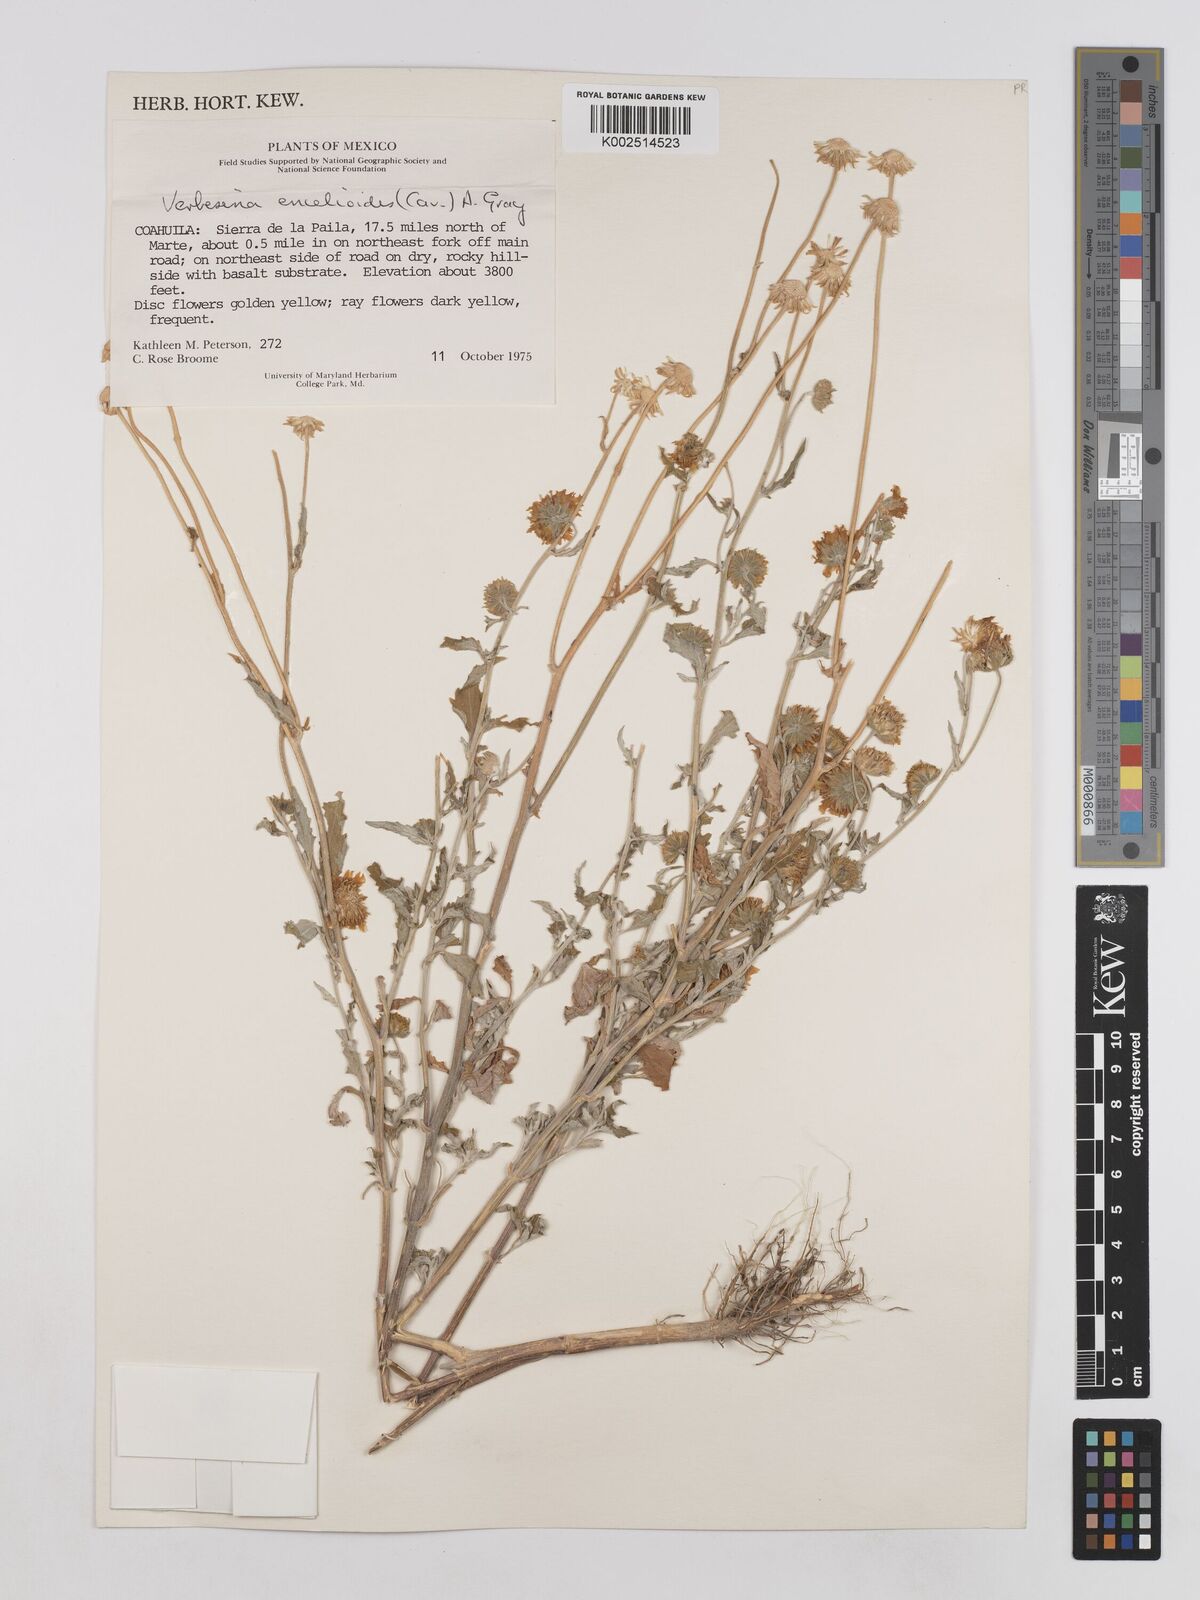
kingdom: Plantae
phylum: Tracheophyta
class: Magnoliopsida
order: Asterales
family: Asteraceae
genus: Verbesina
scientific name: Verbesina encelioides
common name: Golden crownbeard
